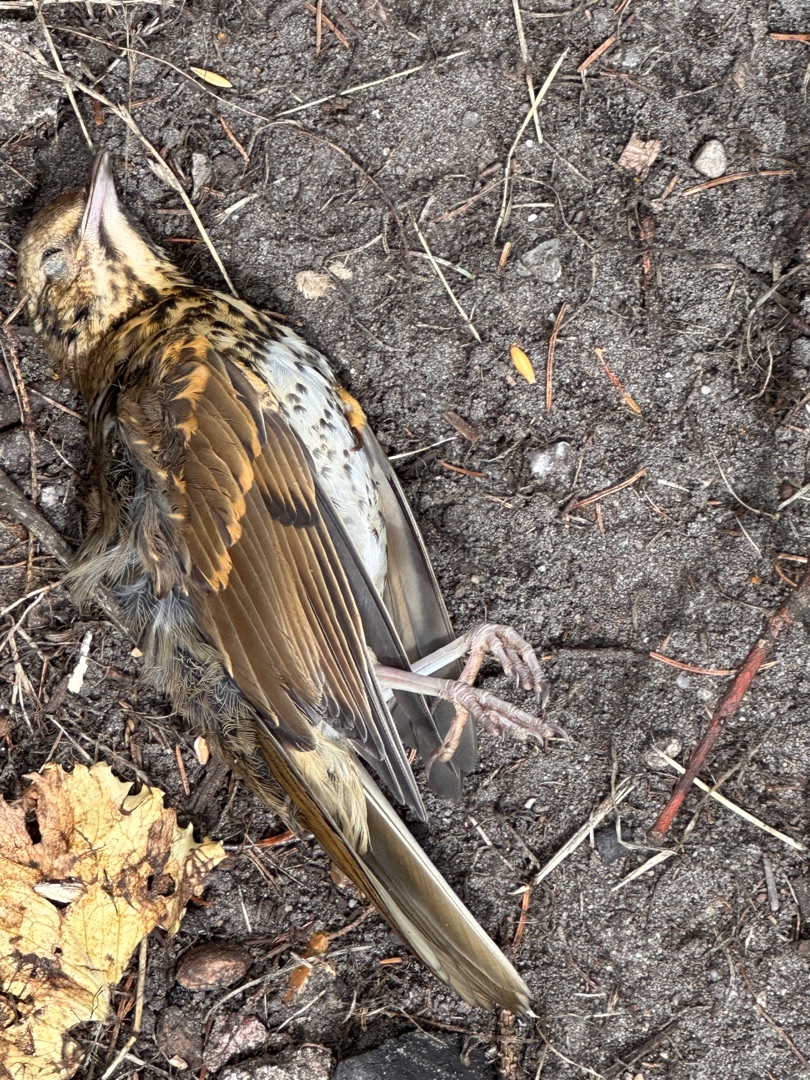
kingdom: Animalia
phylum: Chordata
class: Aves
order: Passeriformes
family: Turdidae
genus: Turdus
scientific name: Turdus philomelos
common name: Sangdrossel
